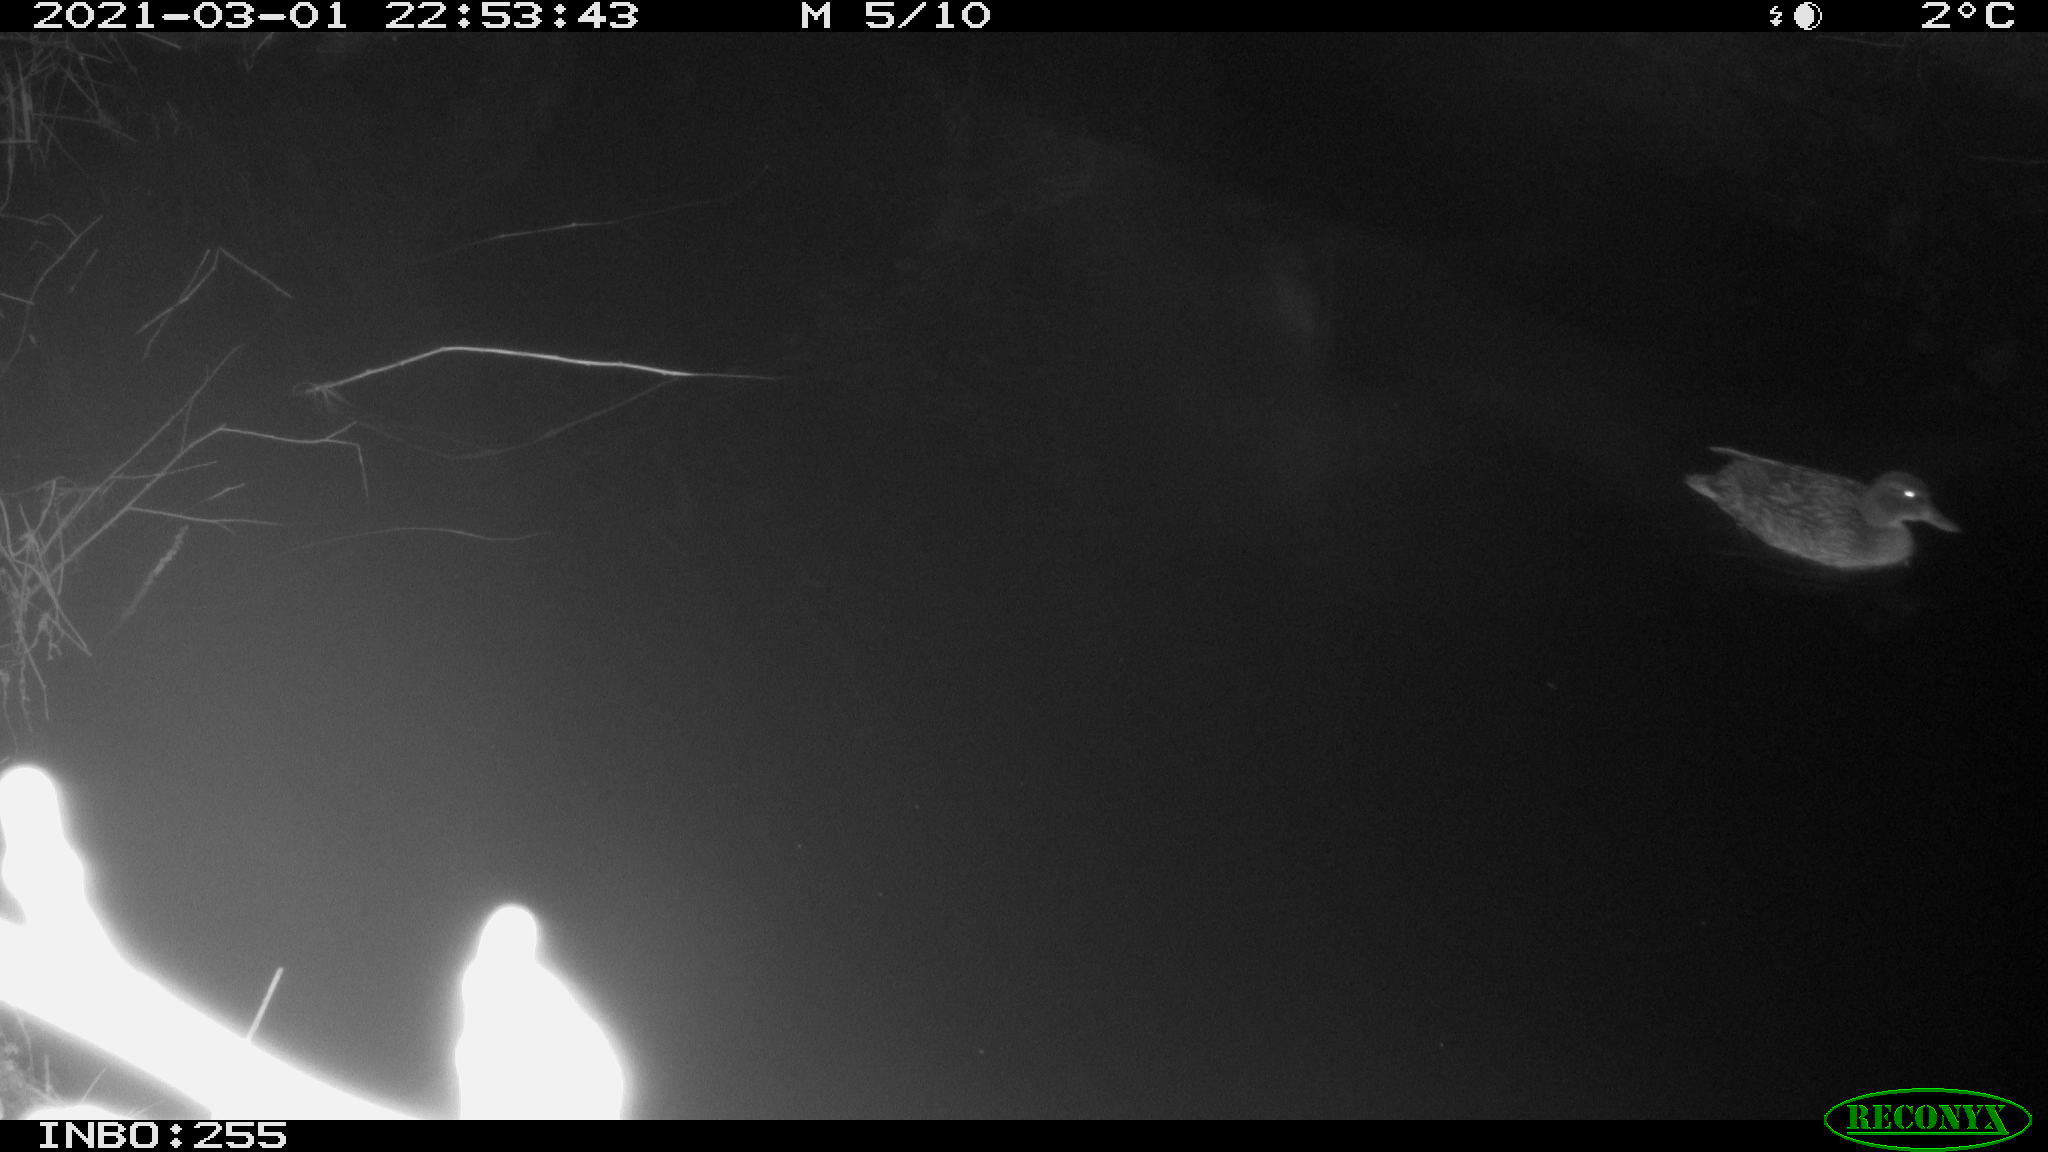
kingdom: Animalia
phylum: Chordata
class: Aves
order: Anseriformes
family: Anatidae
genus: Anas
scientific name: Anas platyrhynchos
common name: Mallard
